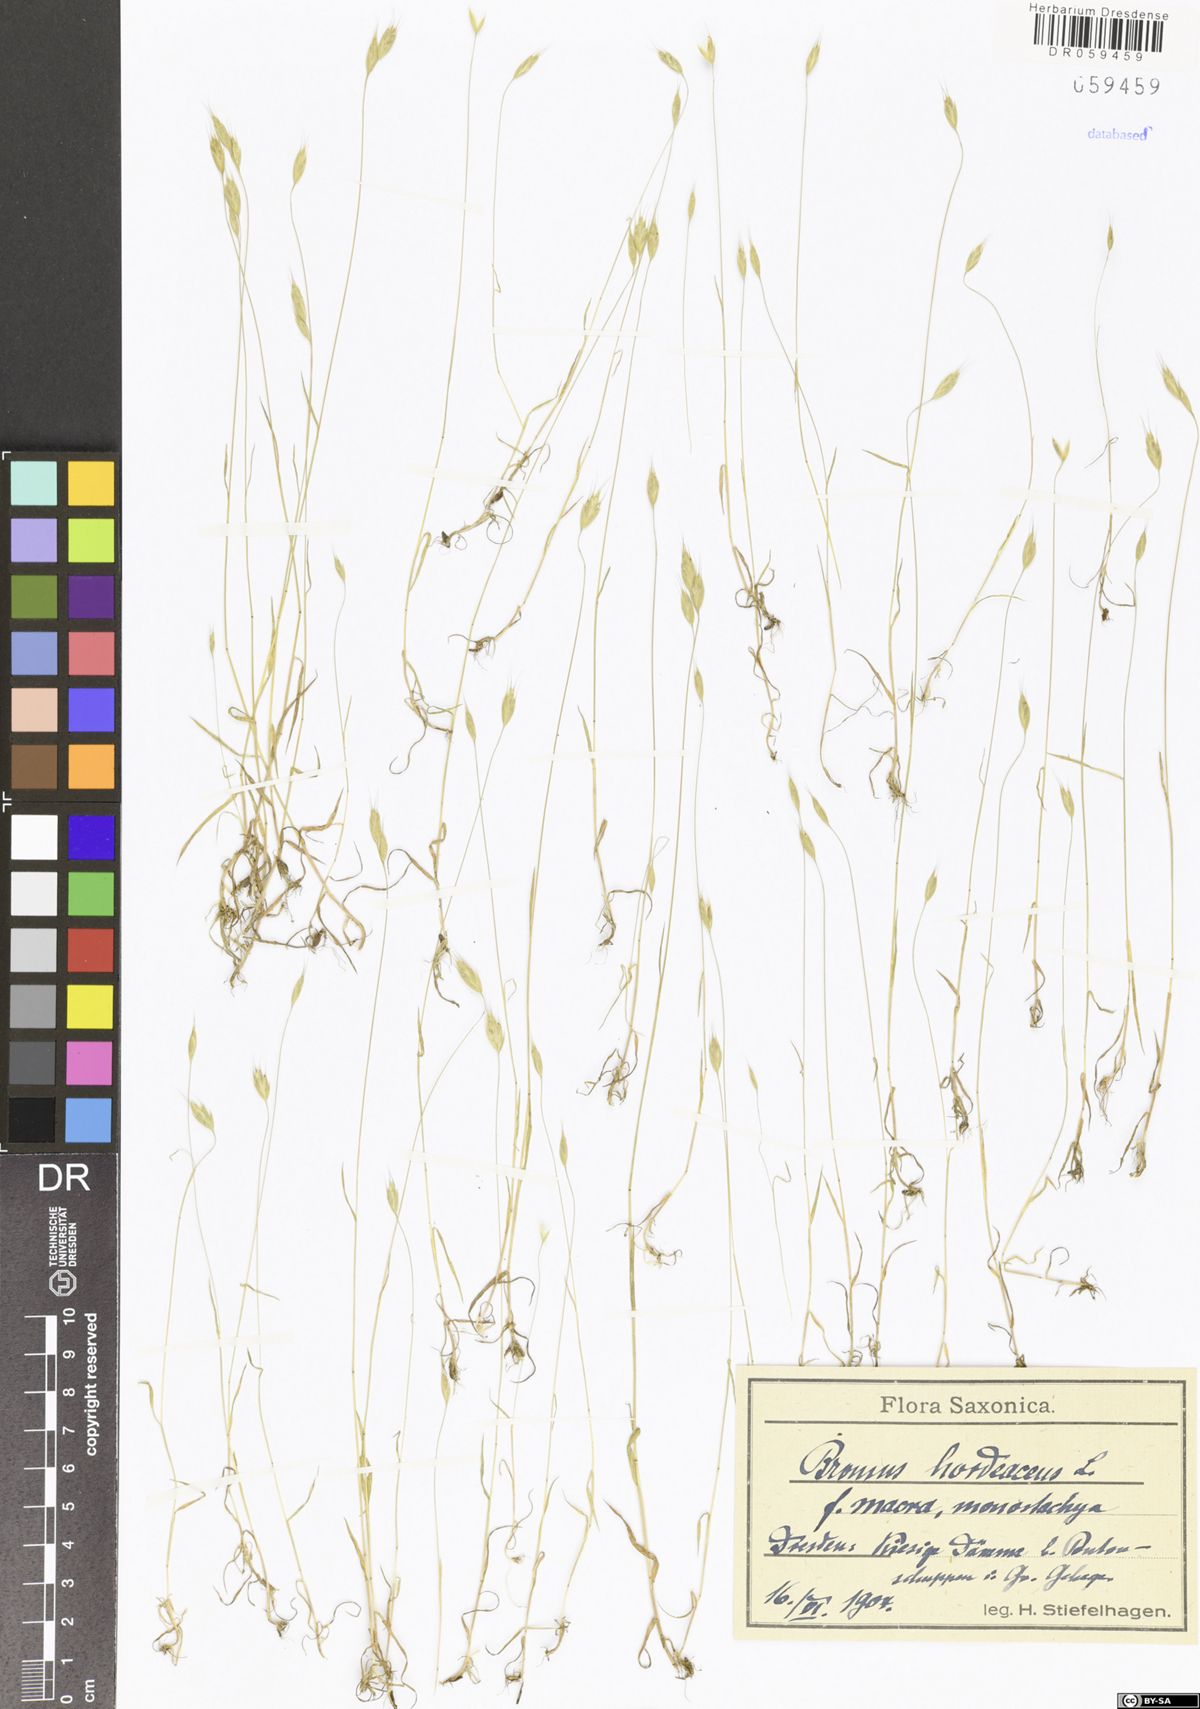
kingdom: Plantae
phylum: Tracheophyta
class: Liliopsida
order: Poales
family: Poaceae
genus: Bromus
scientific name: Bromus hordeaceus
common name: Soft brome
